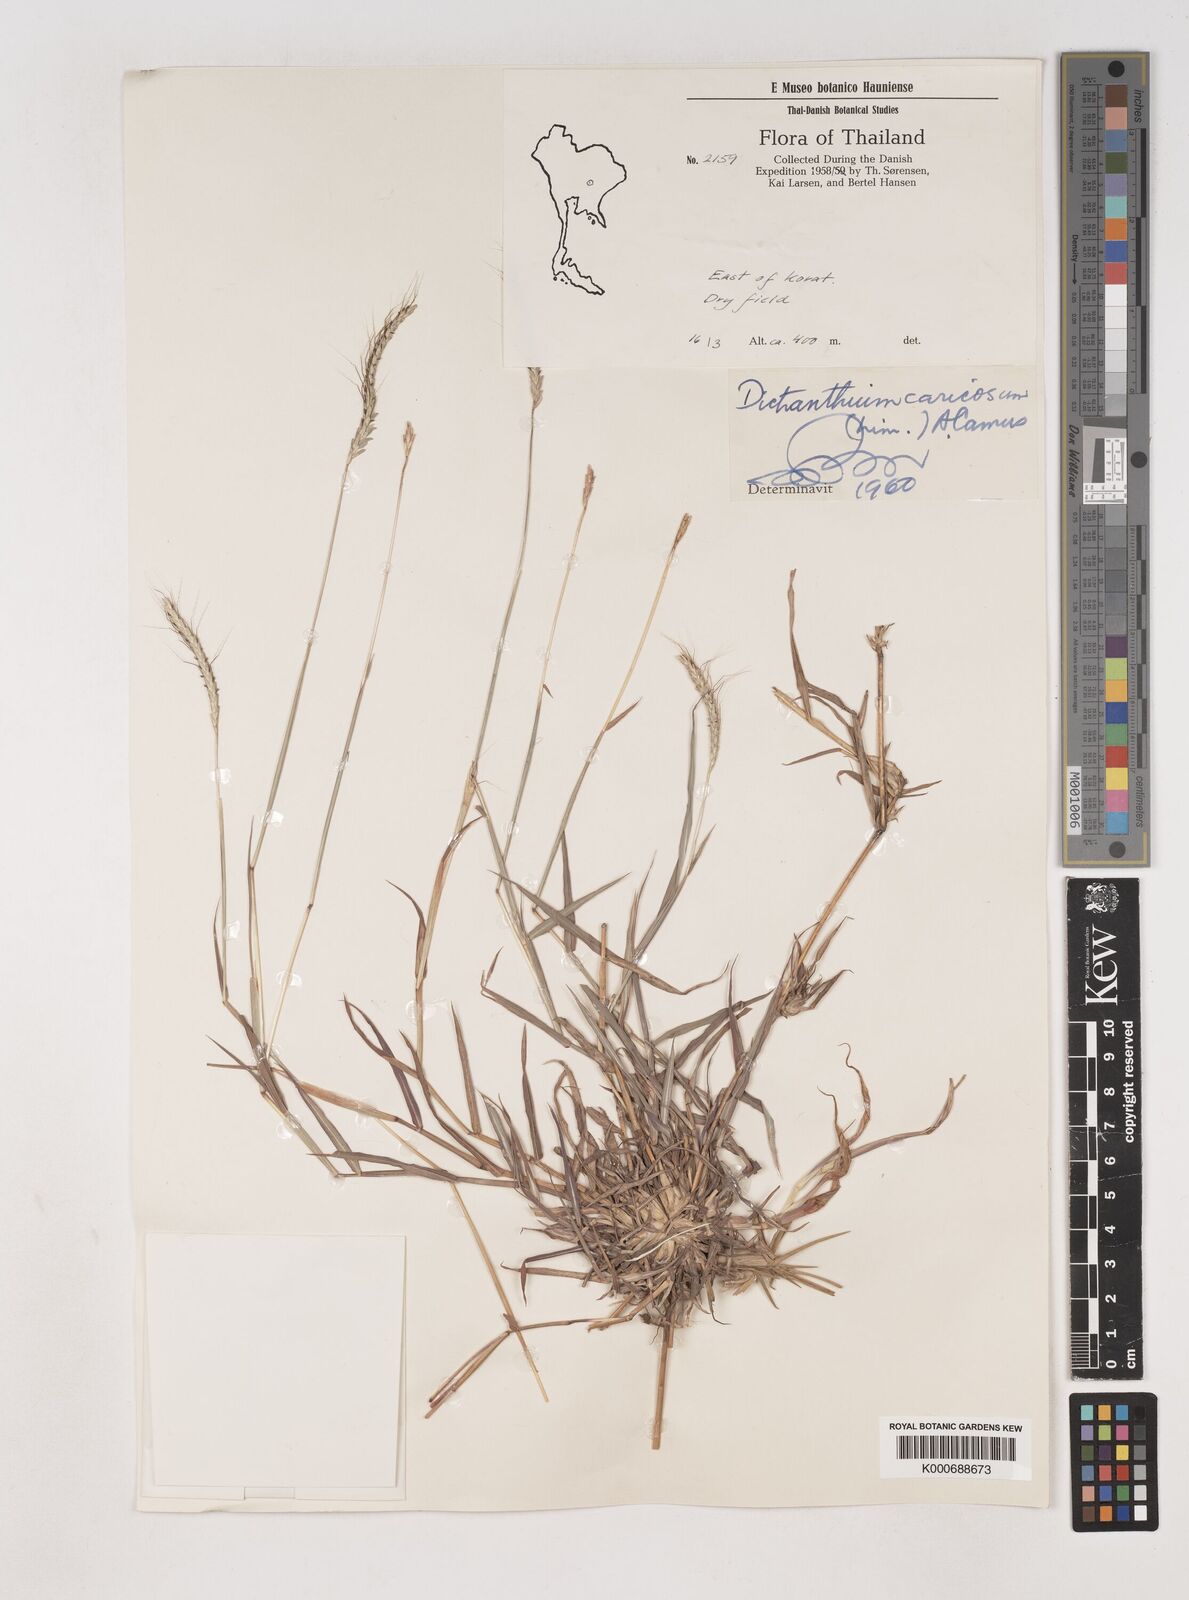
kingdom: Plantae
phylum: Tracheophyta
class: Liliopsida
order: Poales
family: Poaceae
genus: Dichanthium
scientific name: Dichanthium caricosum
